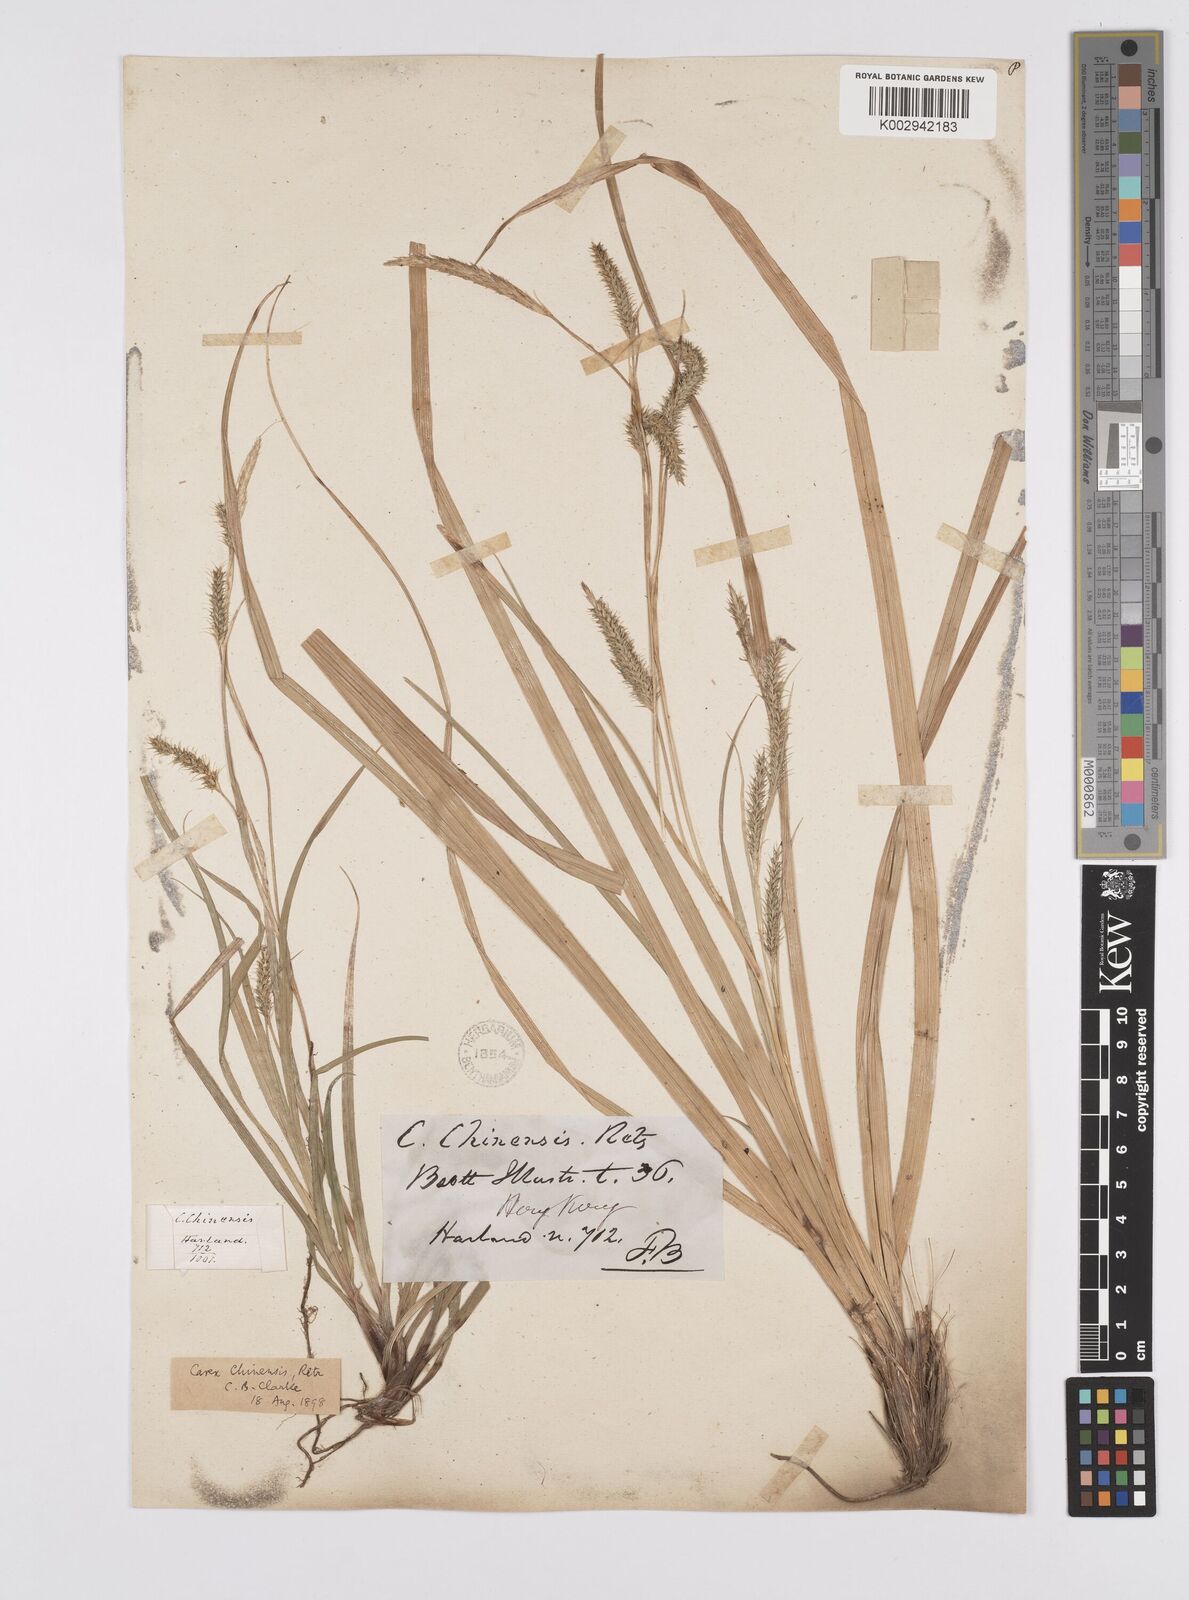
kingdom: Plantae
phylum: Tracheophyta
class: Liliopsida
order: Poales
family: Cyperaceae
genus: Carex
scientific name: Carex chinensis
